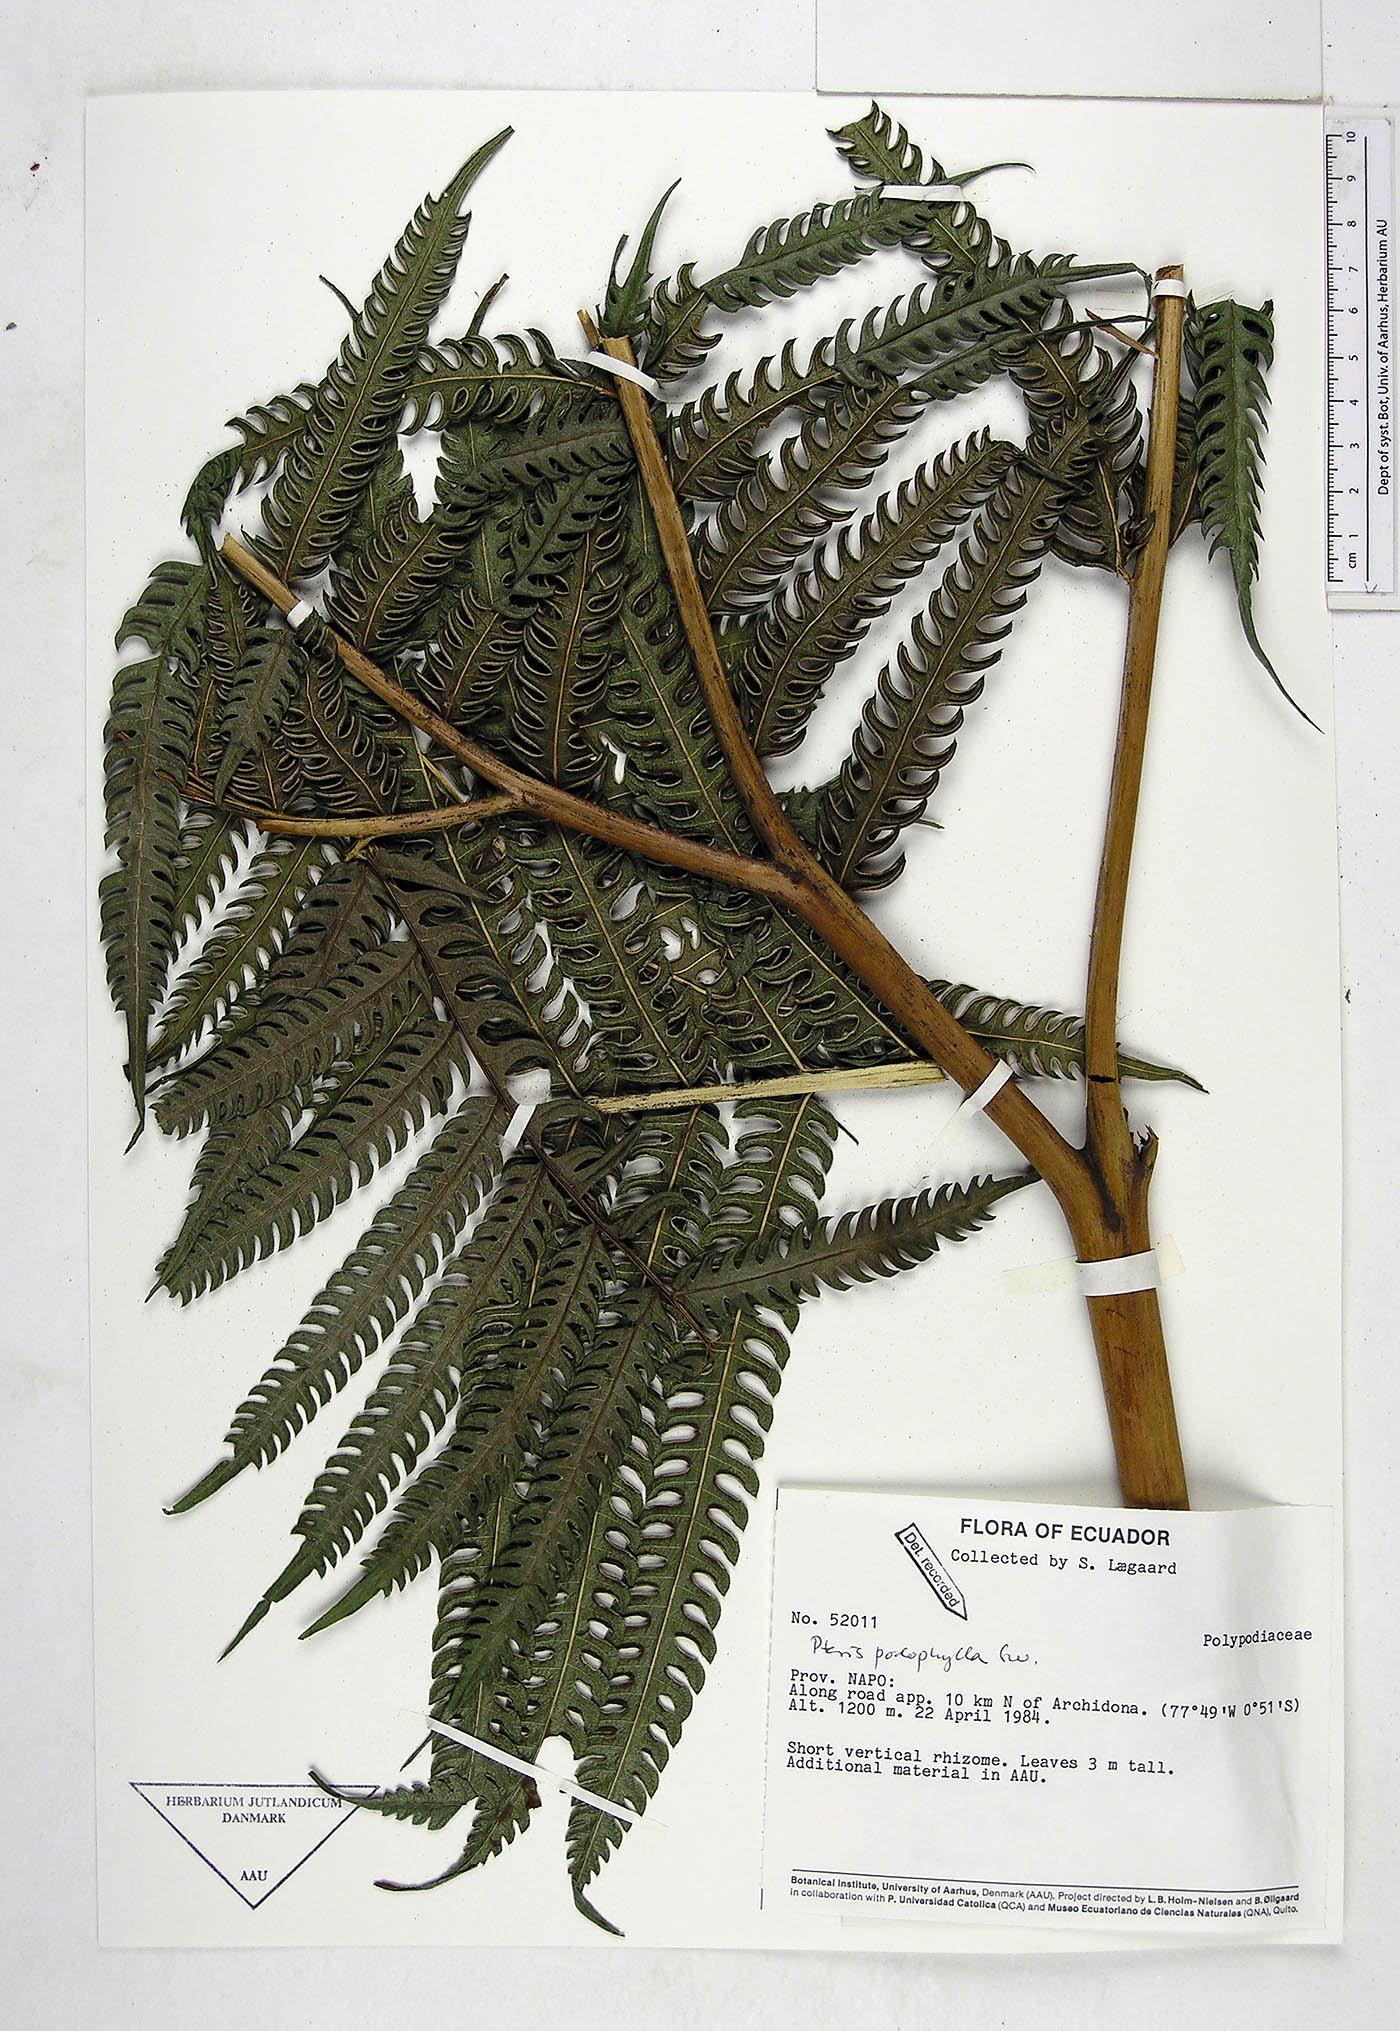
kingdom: Plantae
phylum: Tracheophyta
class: Polypodiopsida
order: Polypodiales
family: Pteridaceae
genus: Pteris
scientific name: Pteris podophylla
